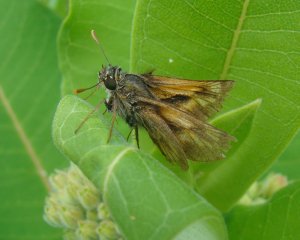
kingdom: Animalia
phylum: Arthropoda
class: Insecta
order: Lepidoptera
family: Hesperiidae
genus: Polites
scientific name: Polites
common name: Long Dash Skipper
